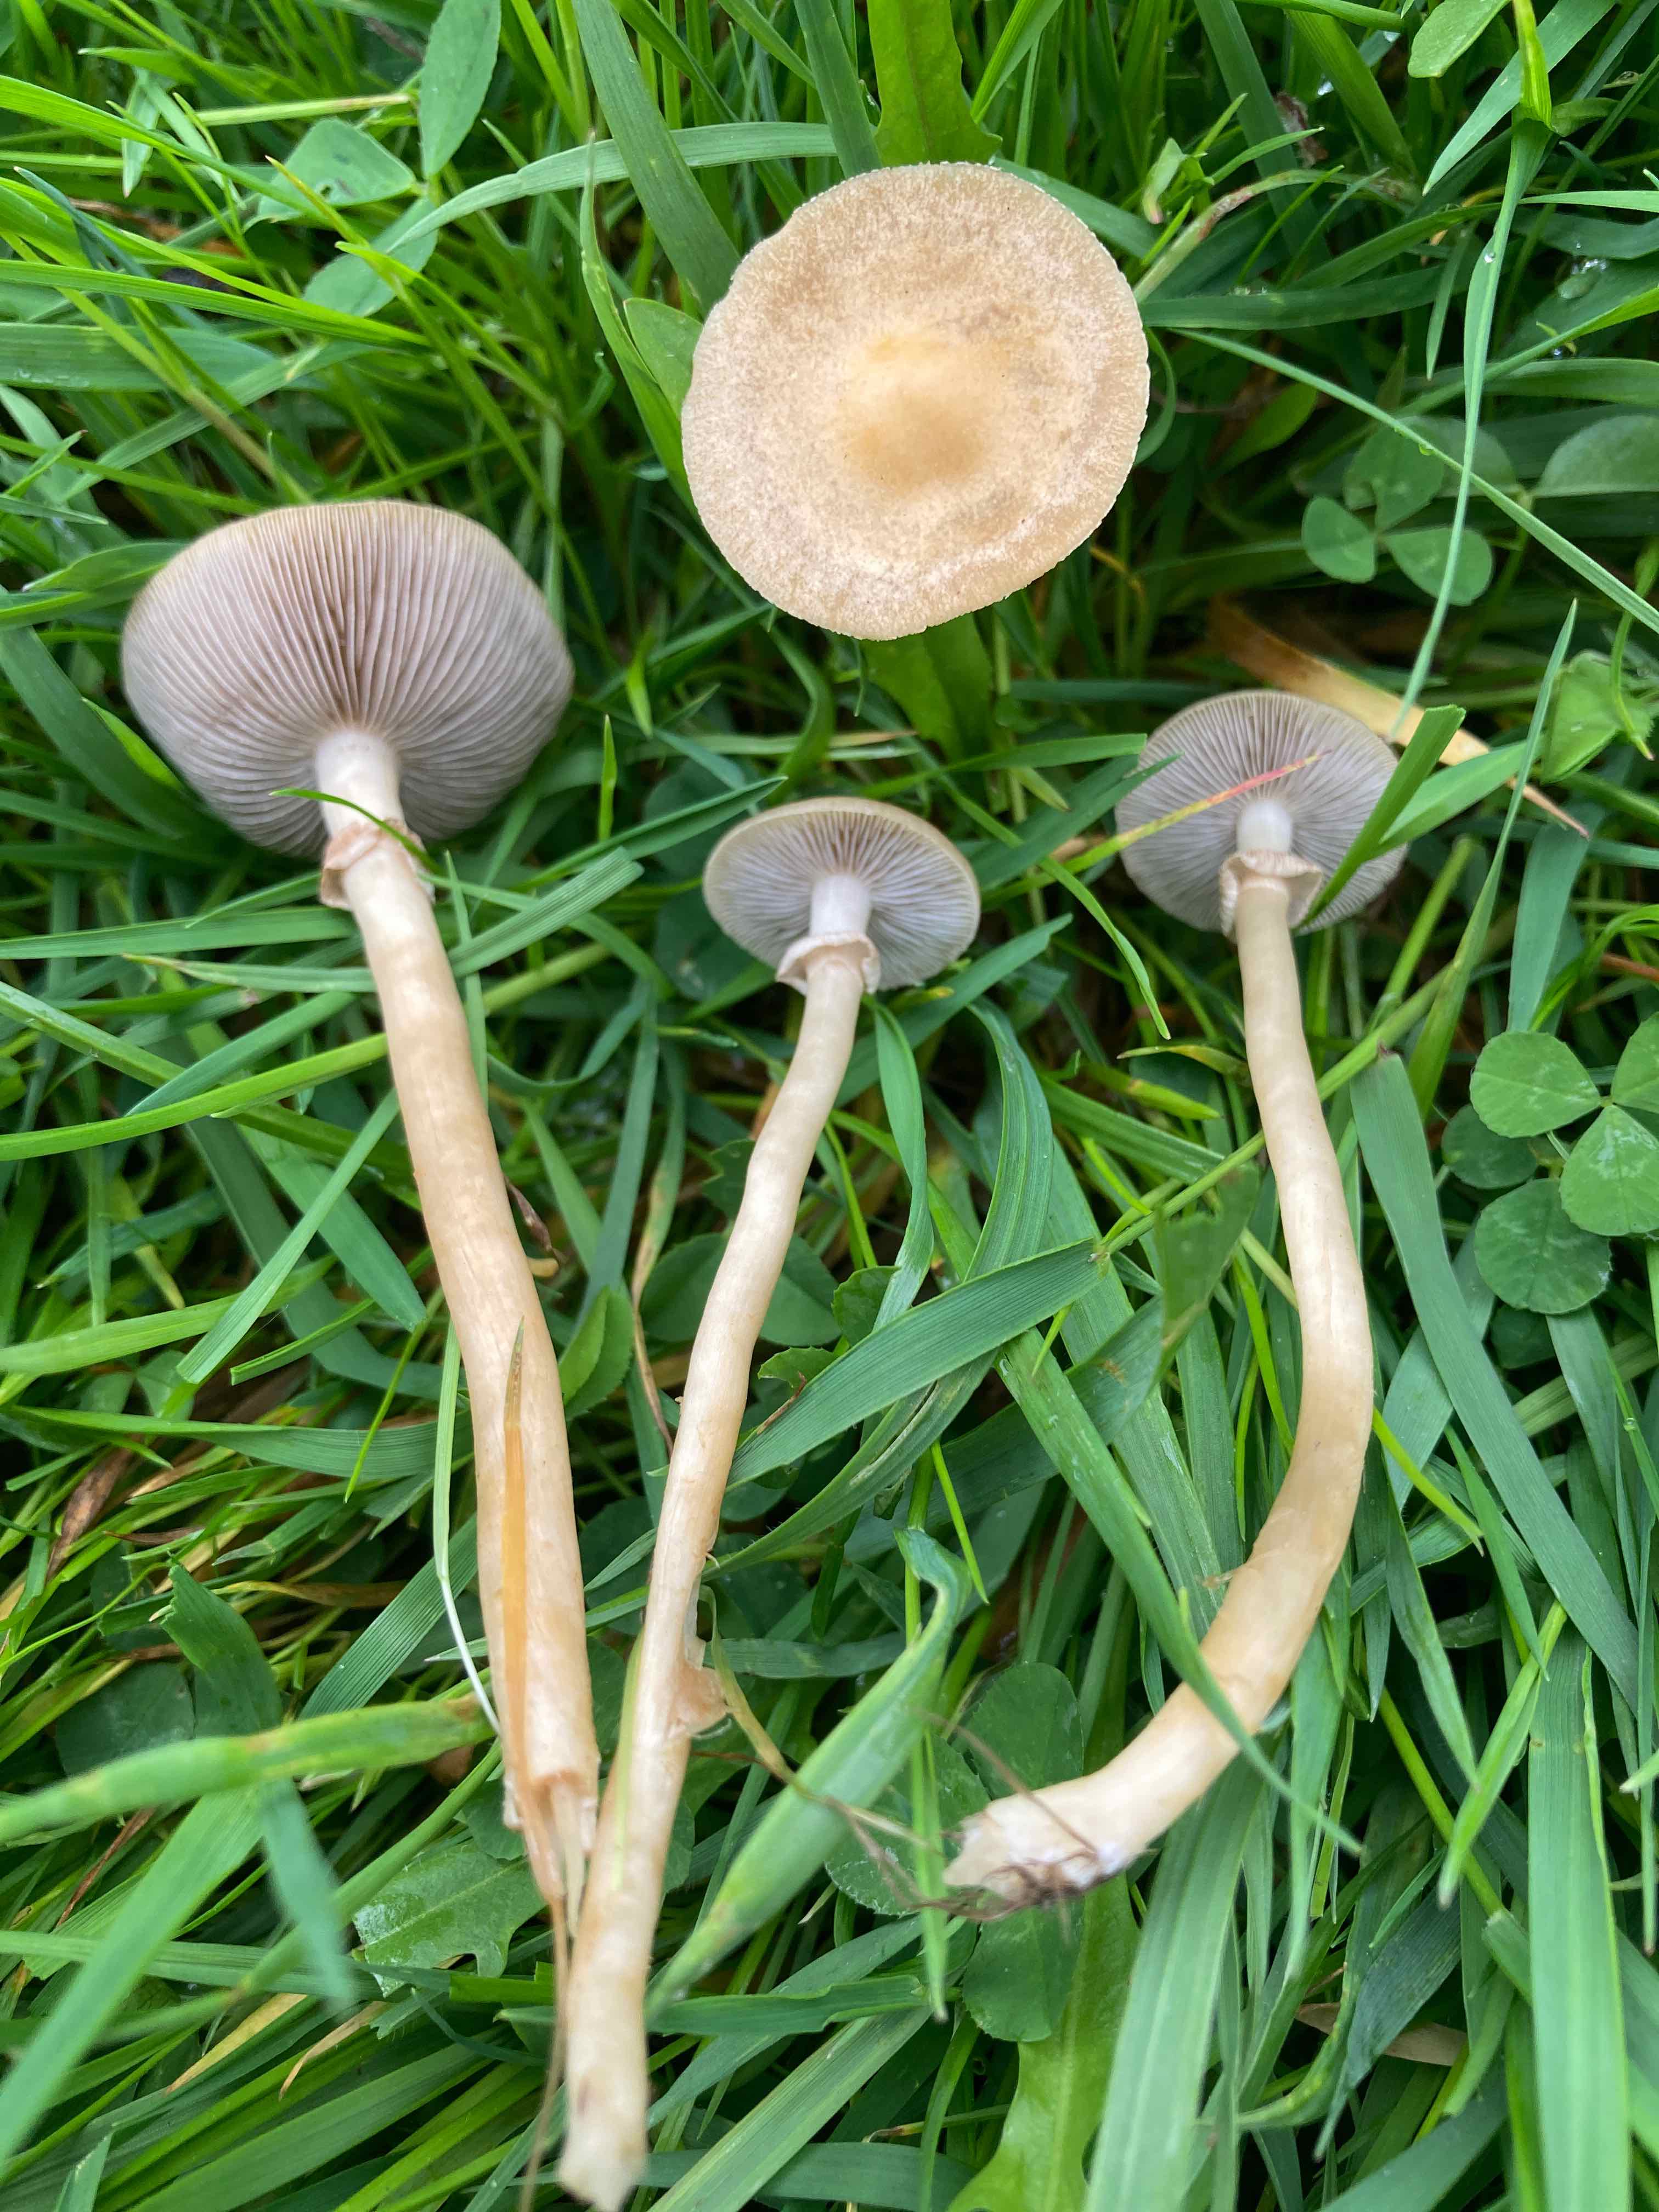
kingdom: Fungi
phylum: Basidiomycota
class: Agaricomycetes
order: Agaricales
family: Strophariaceae
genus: Agrocybe
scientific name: Agrocybe elatella
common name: mose-agerhat
